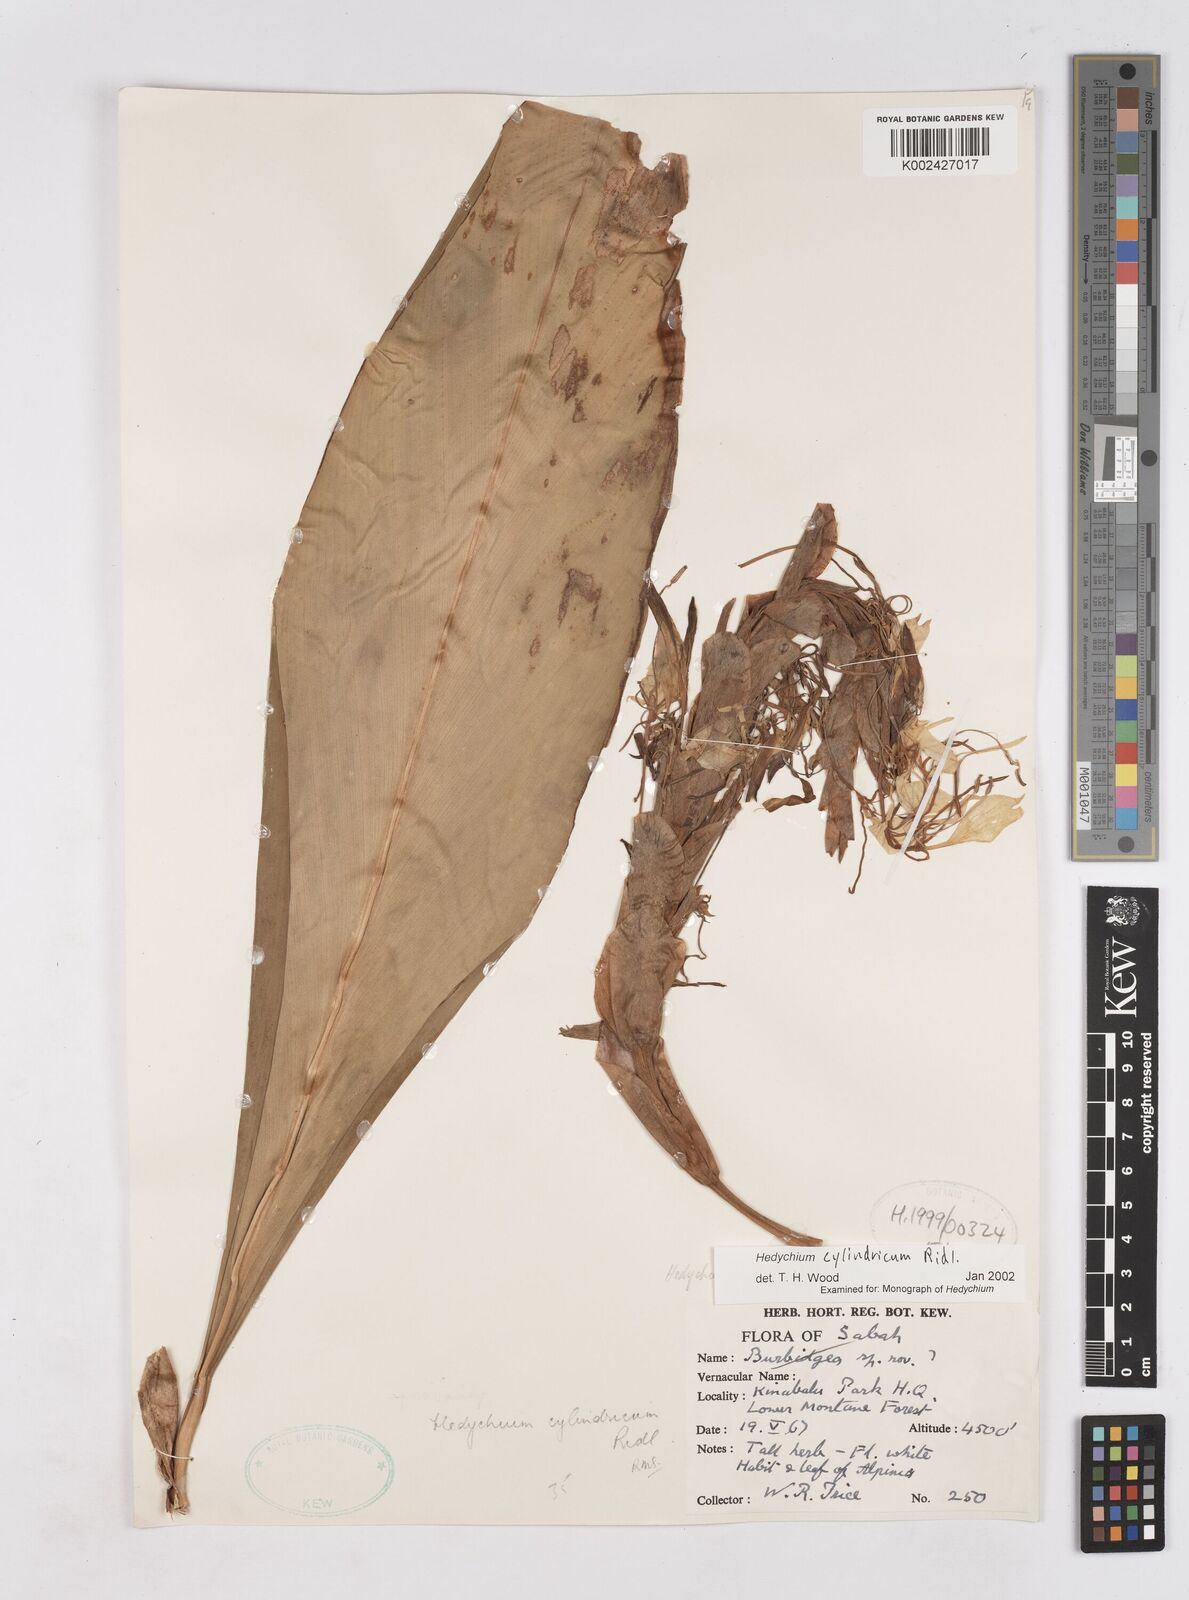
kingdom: Plantae
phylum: Tracheophyta
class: Liliopsida
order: Zingiberales
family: Zingiberaceae
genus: Hedychium
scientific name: Hedychium cylindricum
